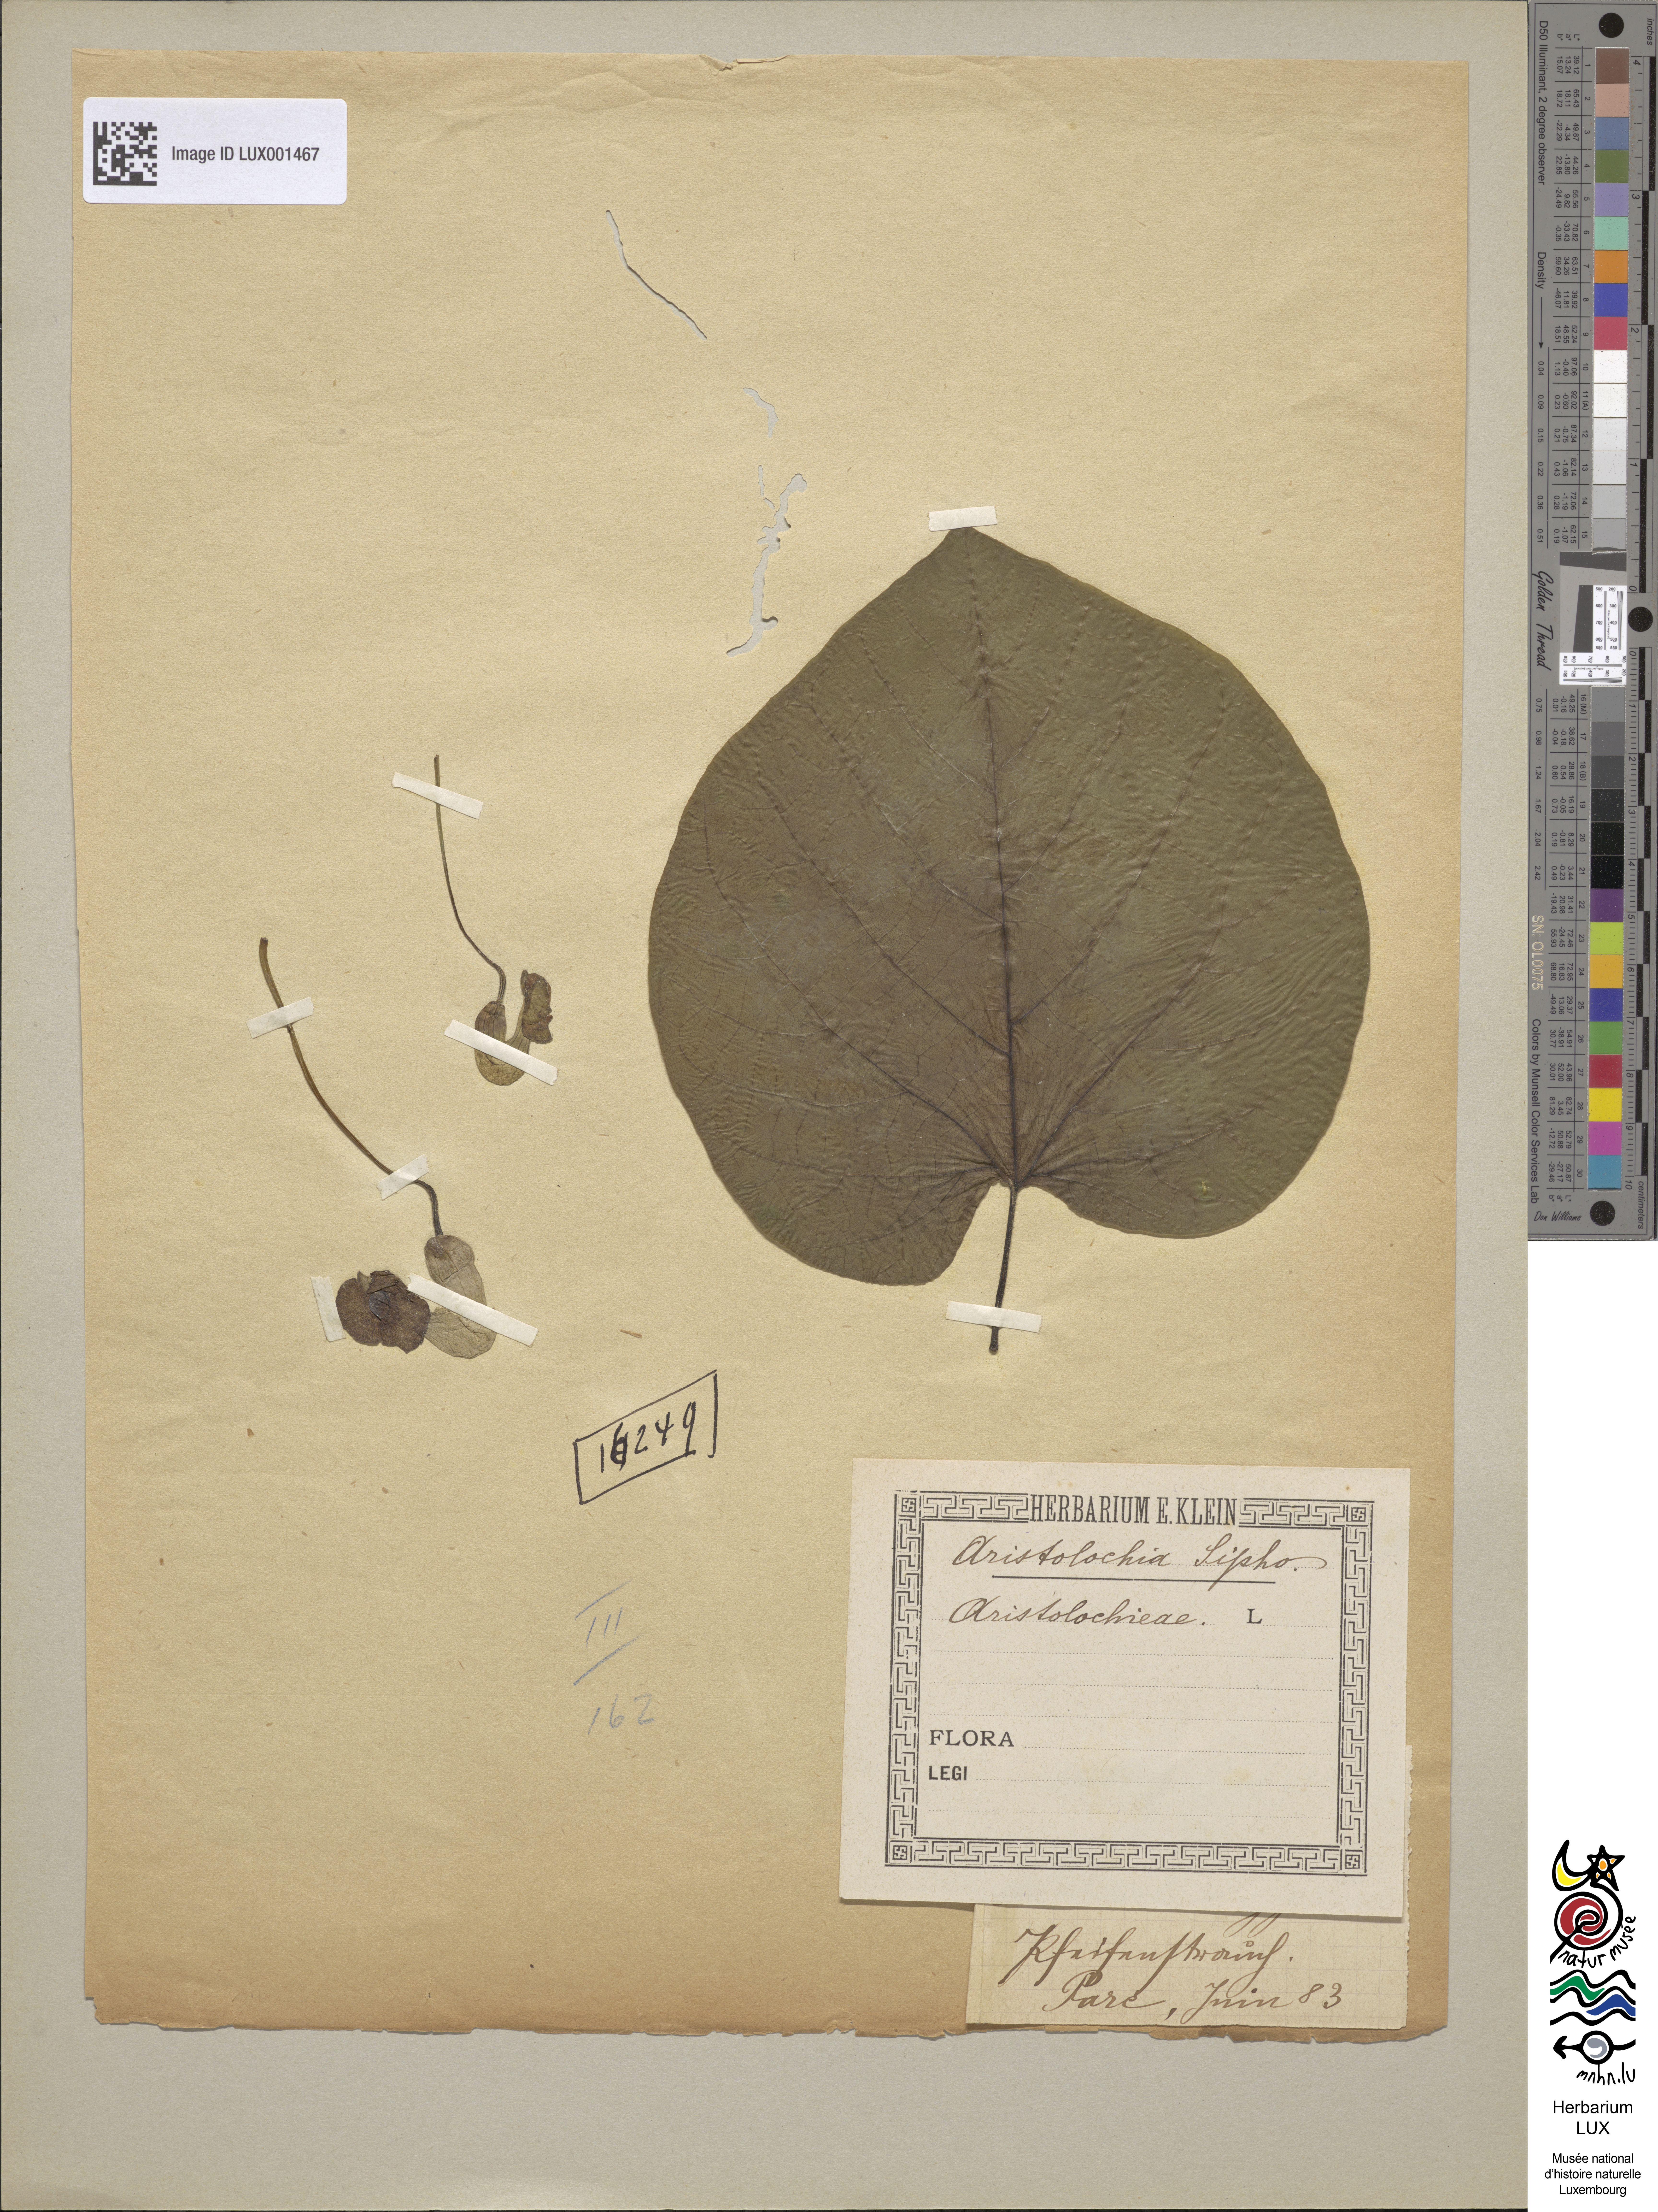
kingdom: Plantae
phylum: Tracheophyta
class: Magnoliopsida
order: Piperales
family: Aristolochiaceae
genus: Isotrema
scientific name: Isotrema macrophyllum
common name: Dutchman's-pipe
